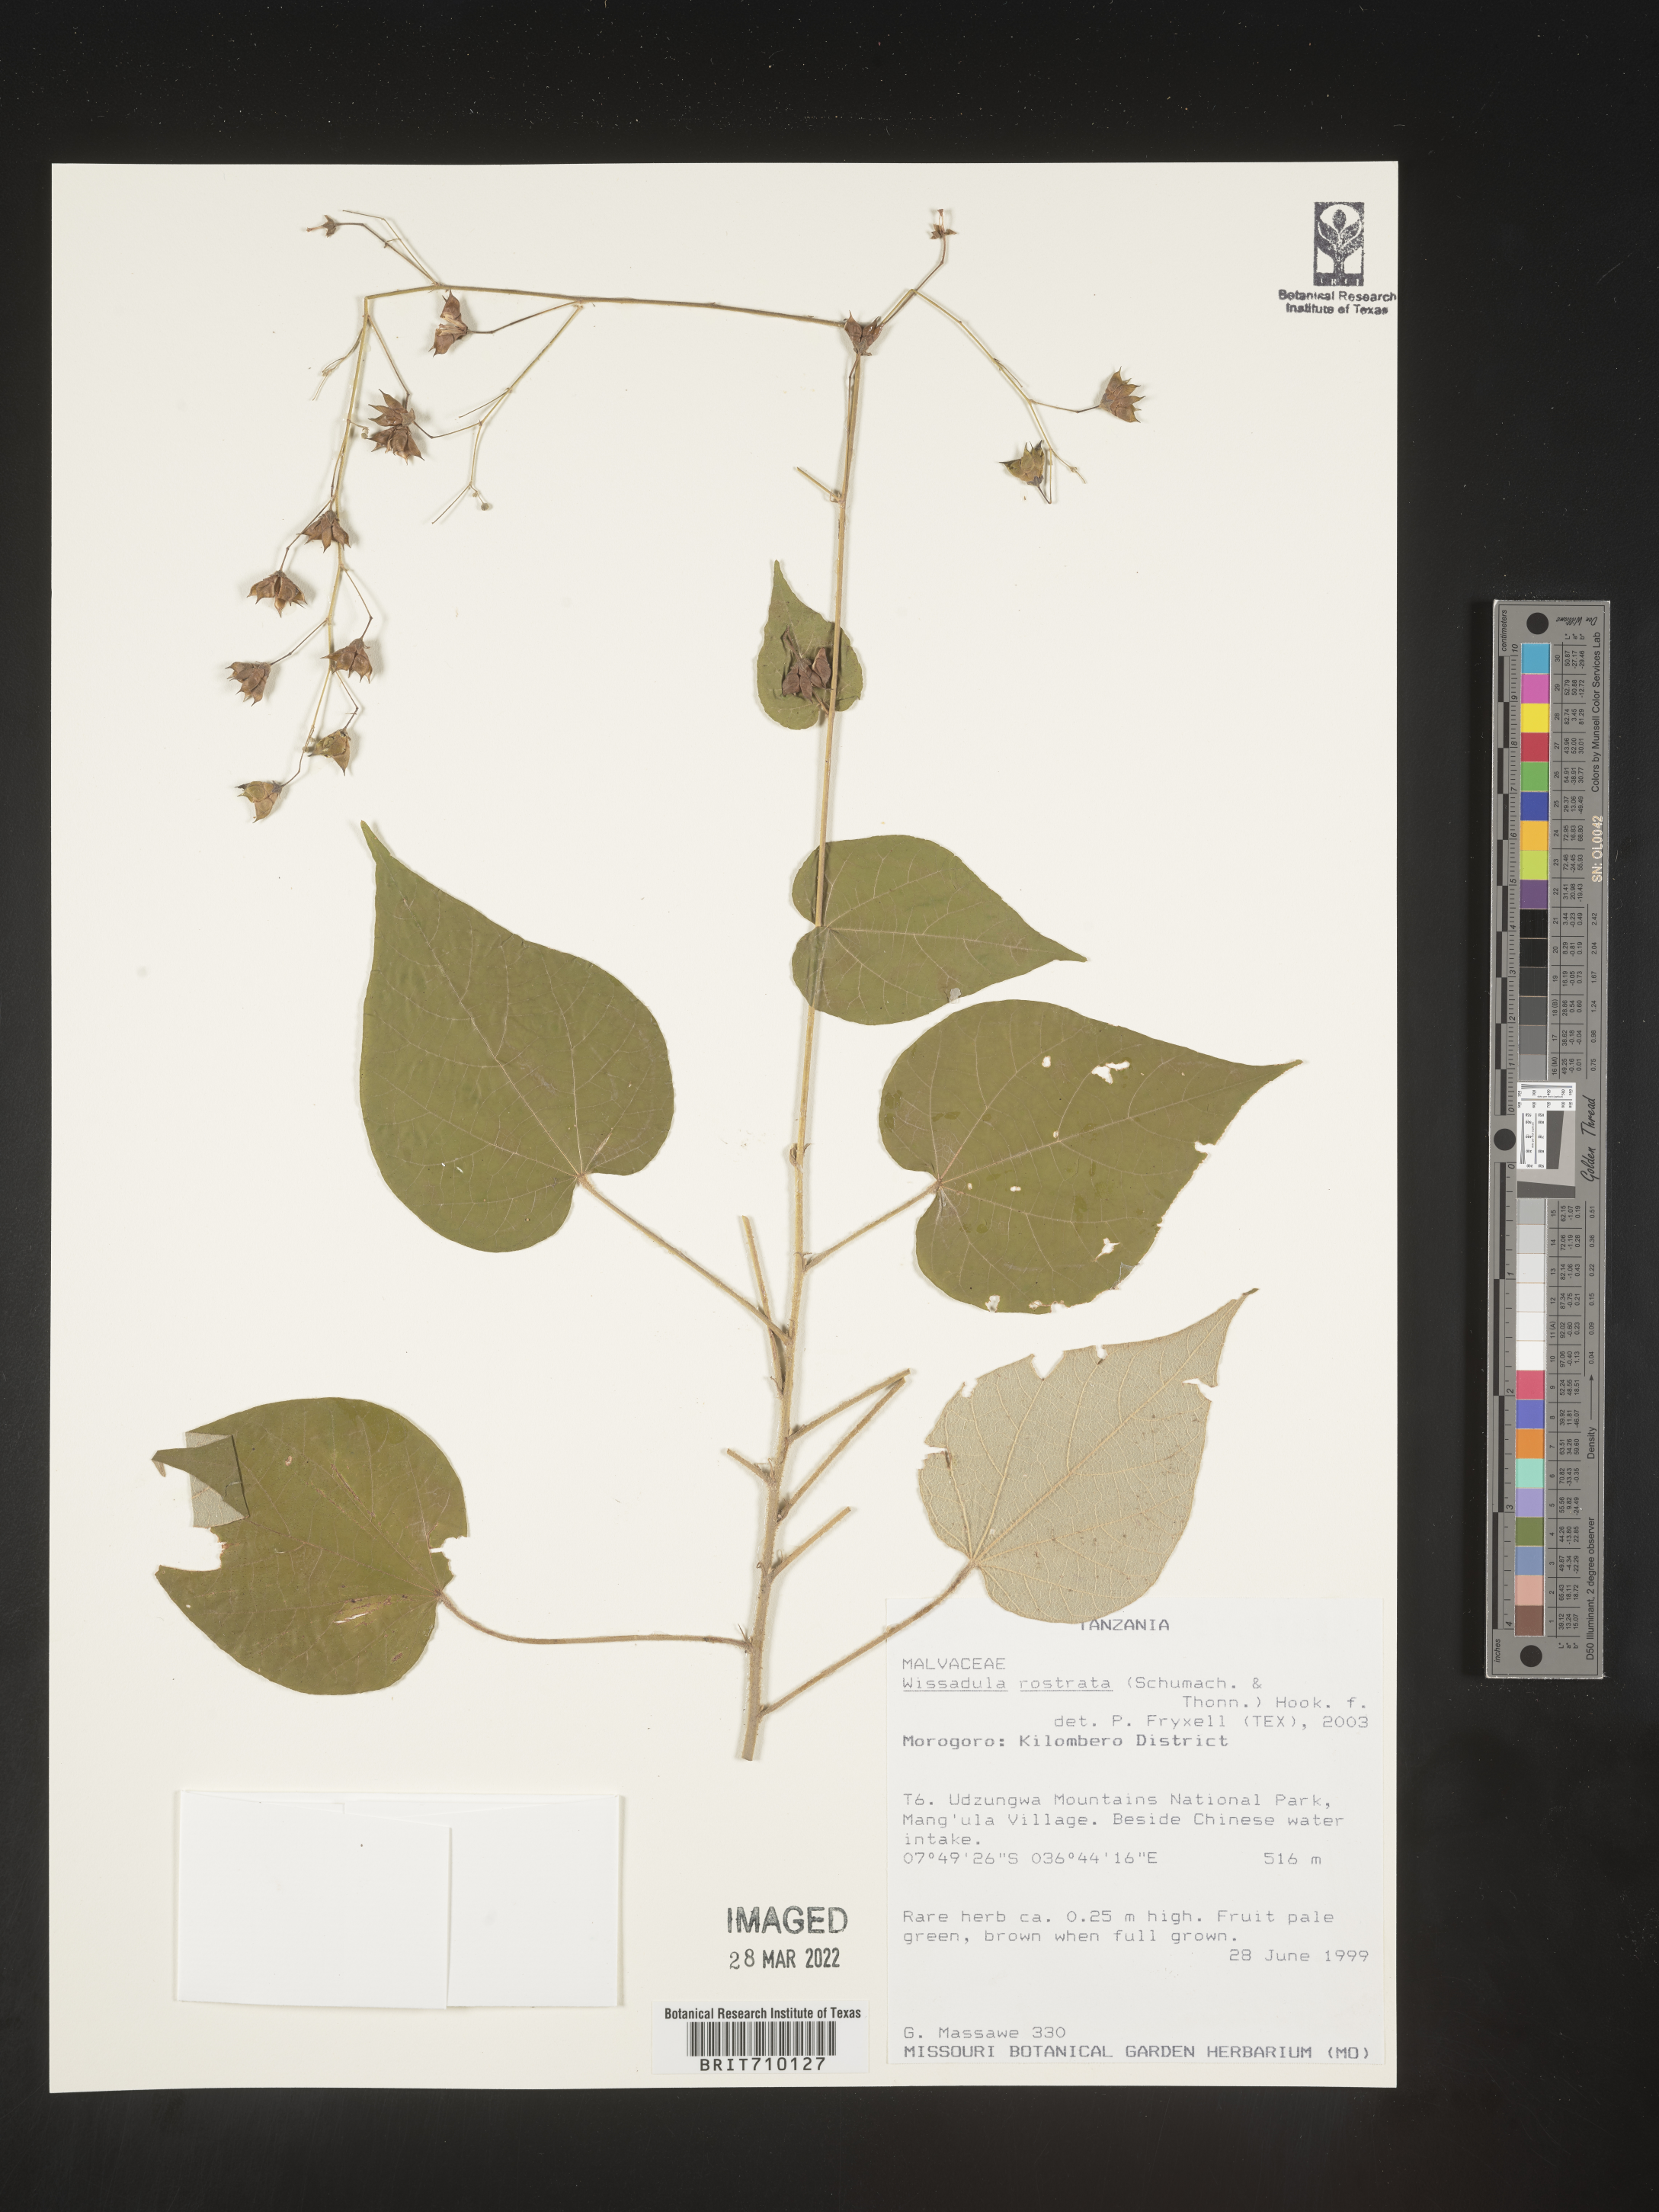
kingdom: Plantae
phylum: Tracheophyta
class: Magnoliopsida
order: Malvales
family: Malvaceae
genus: Wissadula
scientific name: Wissadula
